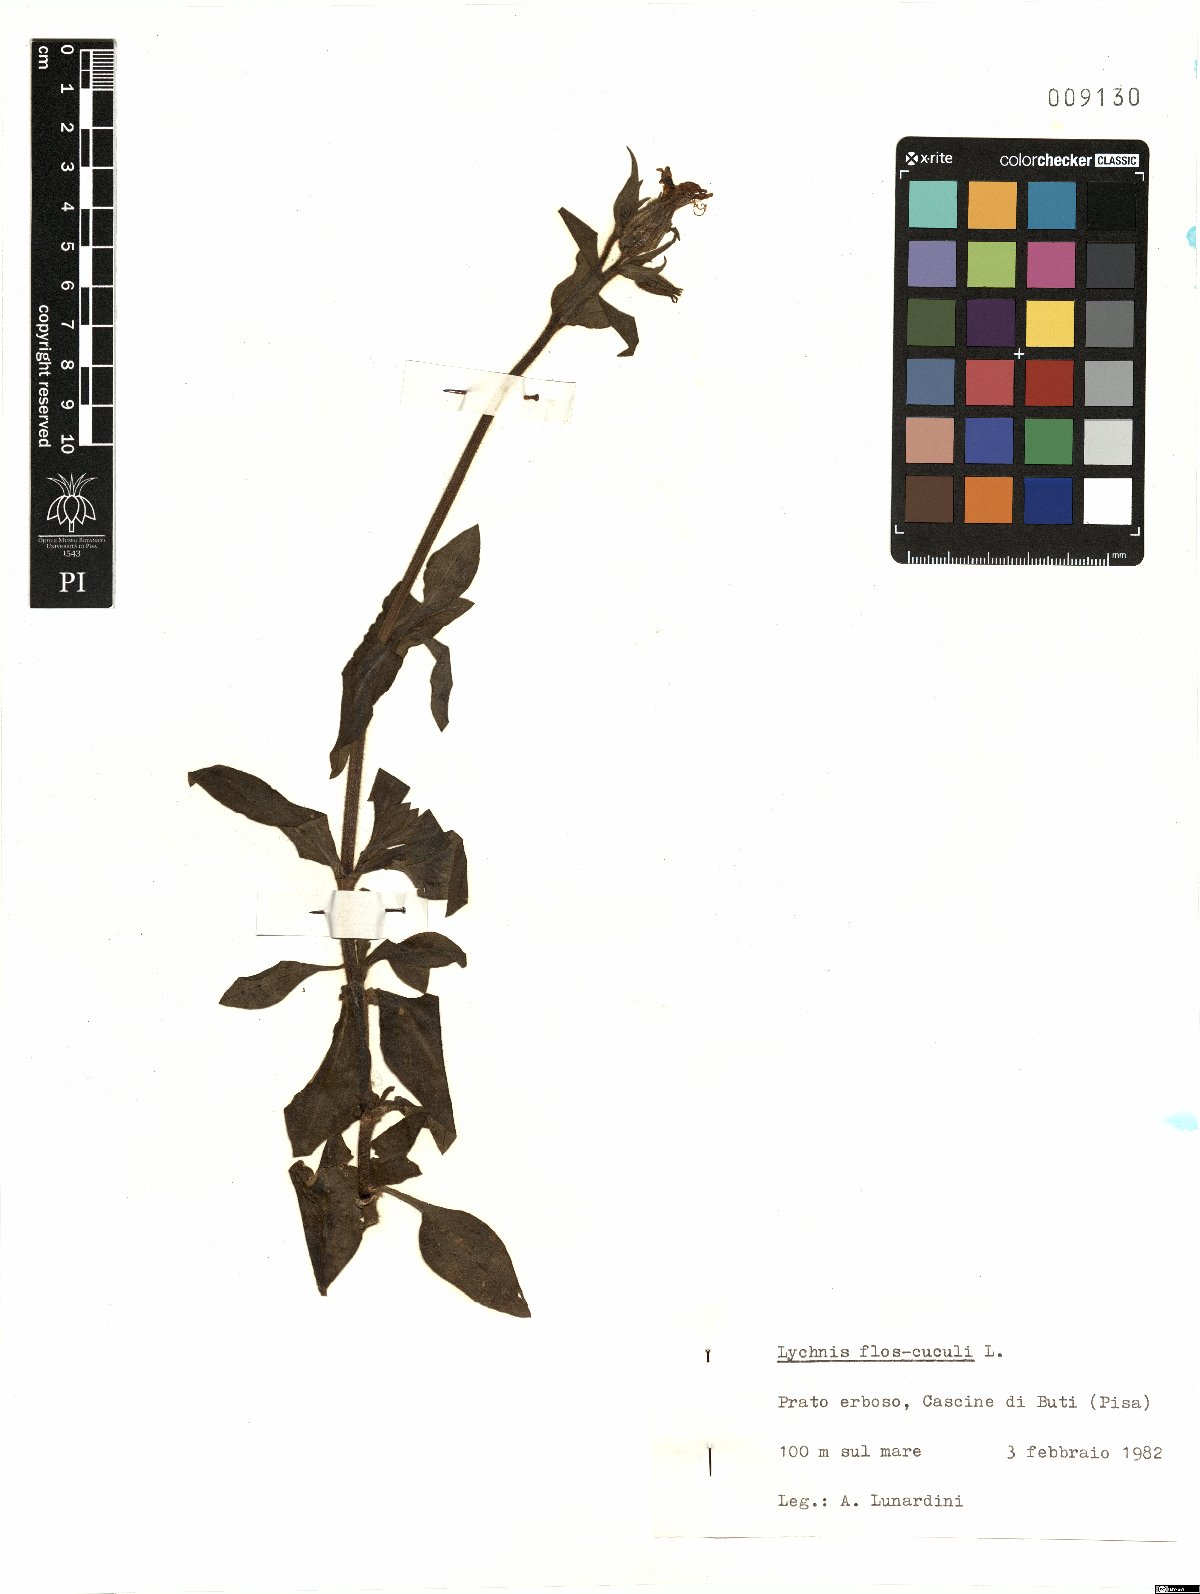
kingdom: Plantae
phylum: Tracheophyta
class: Magnoliopsida
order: Caryophyllales
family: Caryophyllaceae
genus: Silene
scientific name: Silene flos-cuculi
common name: Ragged-robin
